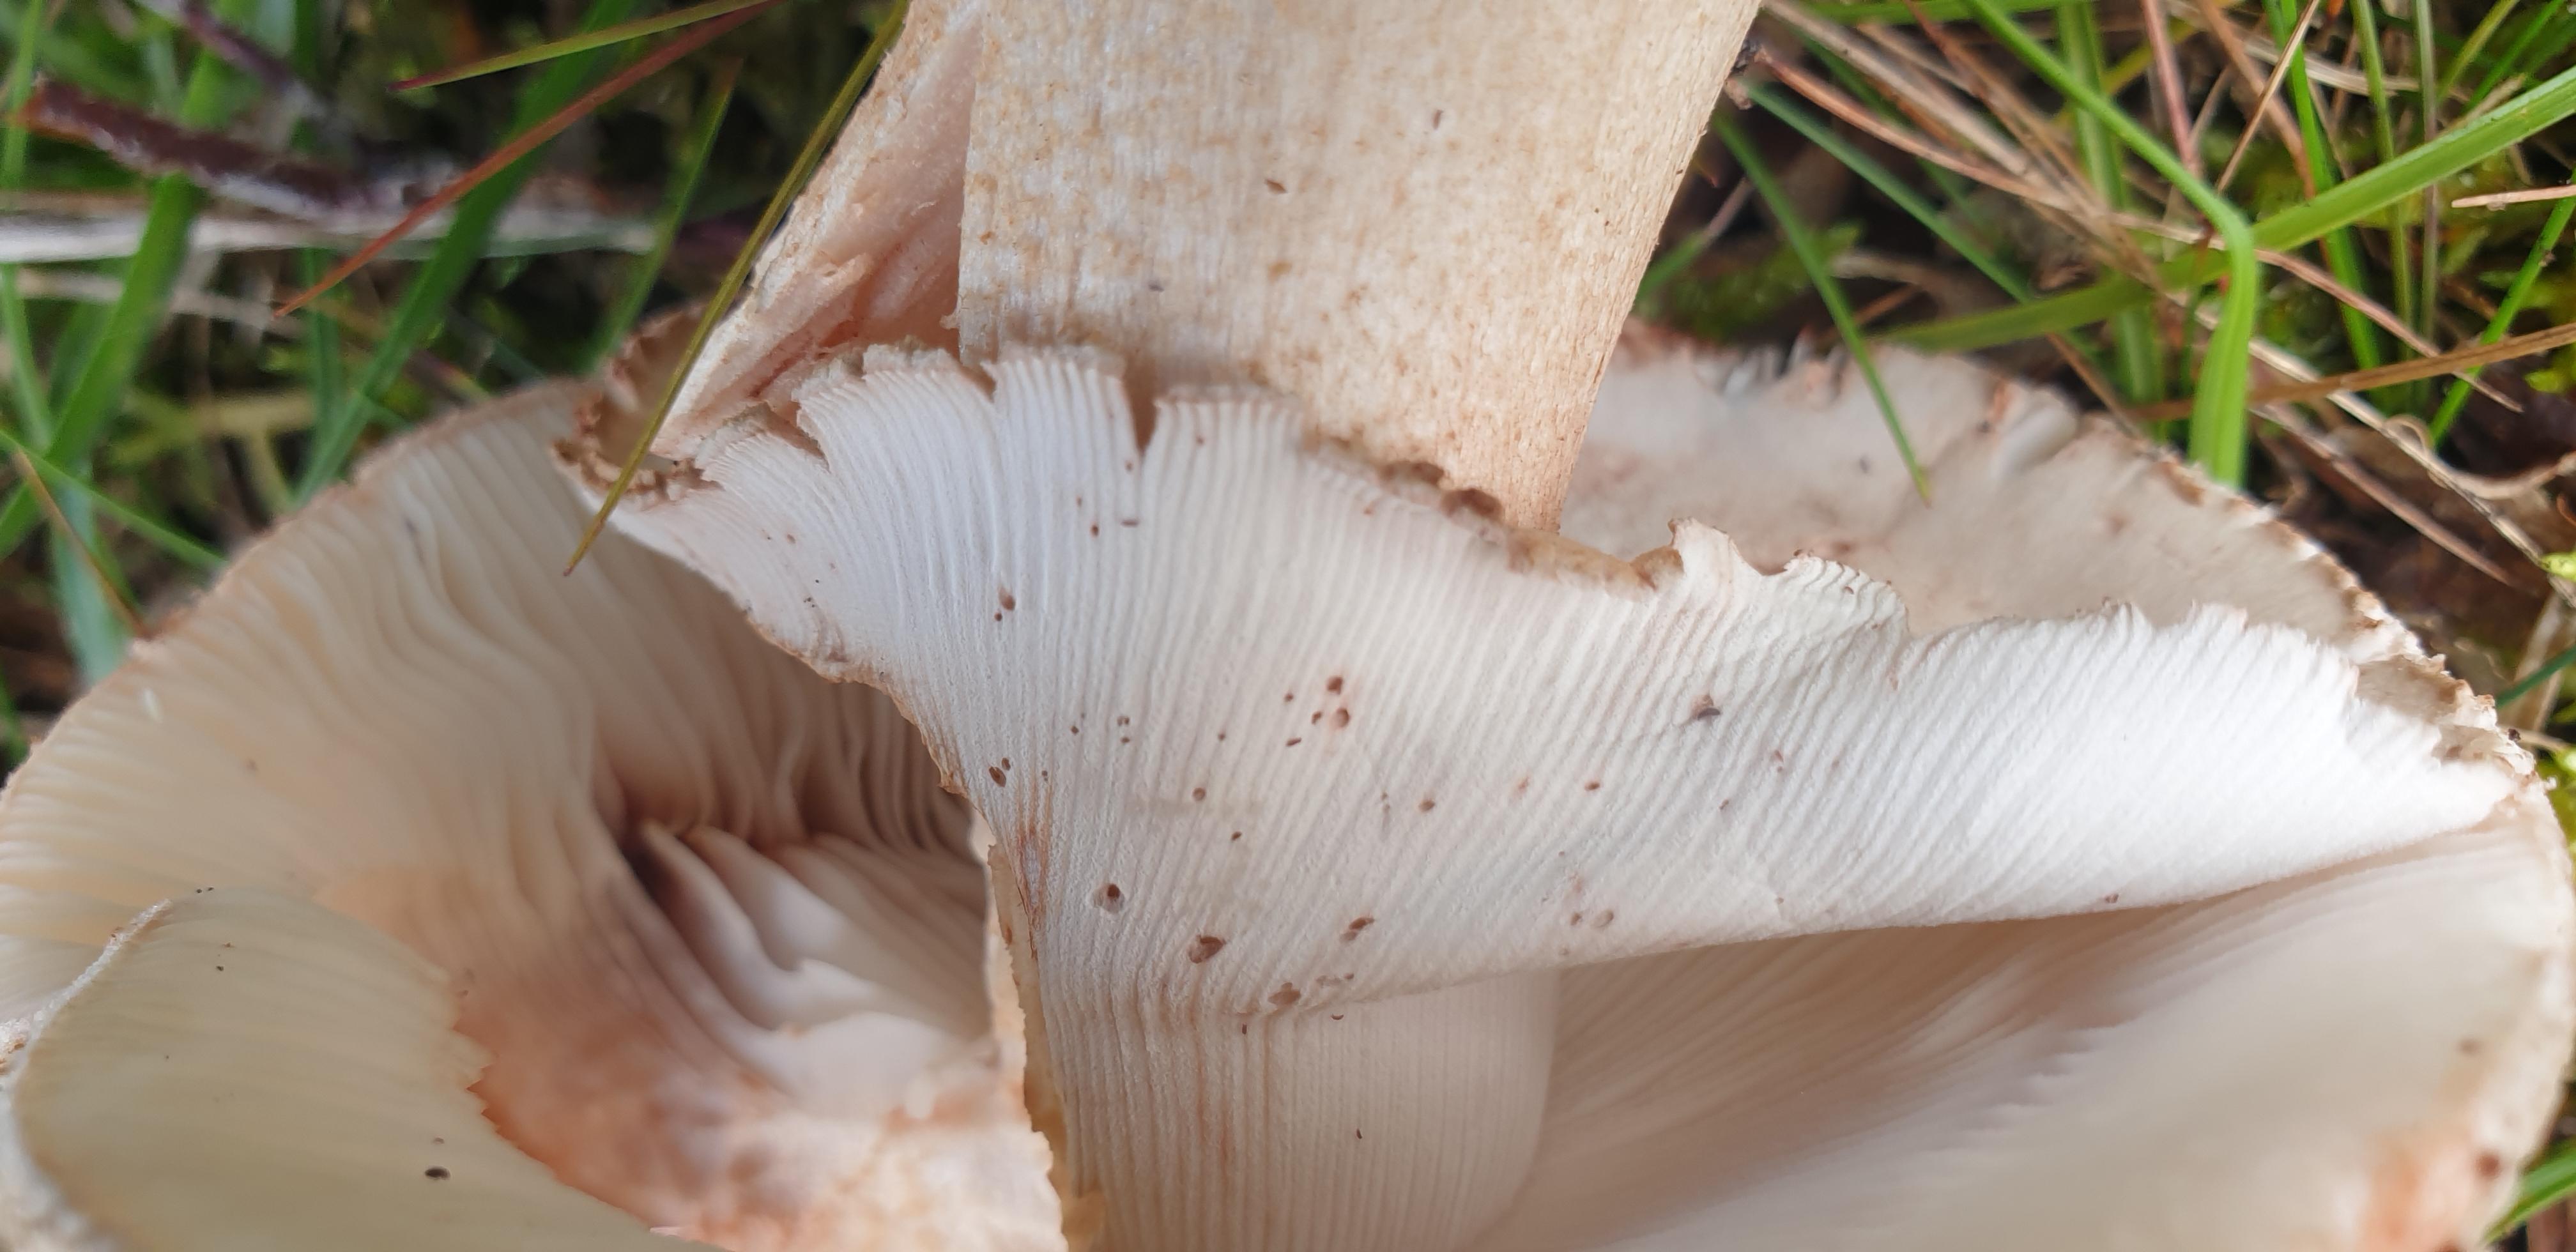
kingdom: Fungi
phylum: Basidiomycota
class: Agaricomycetes
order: Agaricales
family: Amanitaceae
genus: Amanita
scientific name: Amanita rubescens
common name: rødmende fluesvamp
